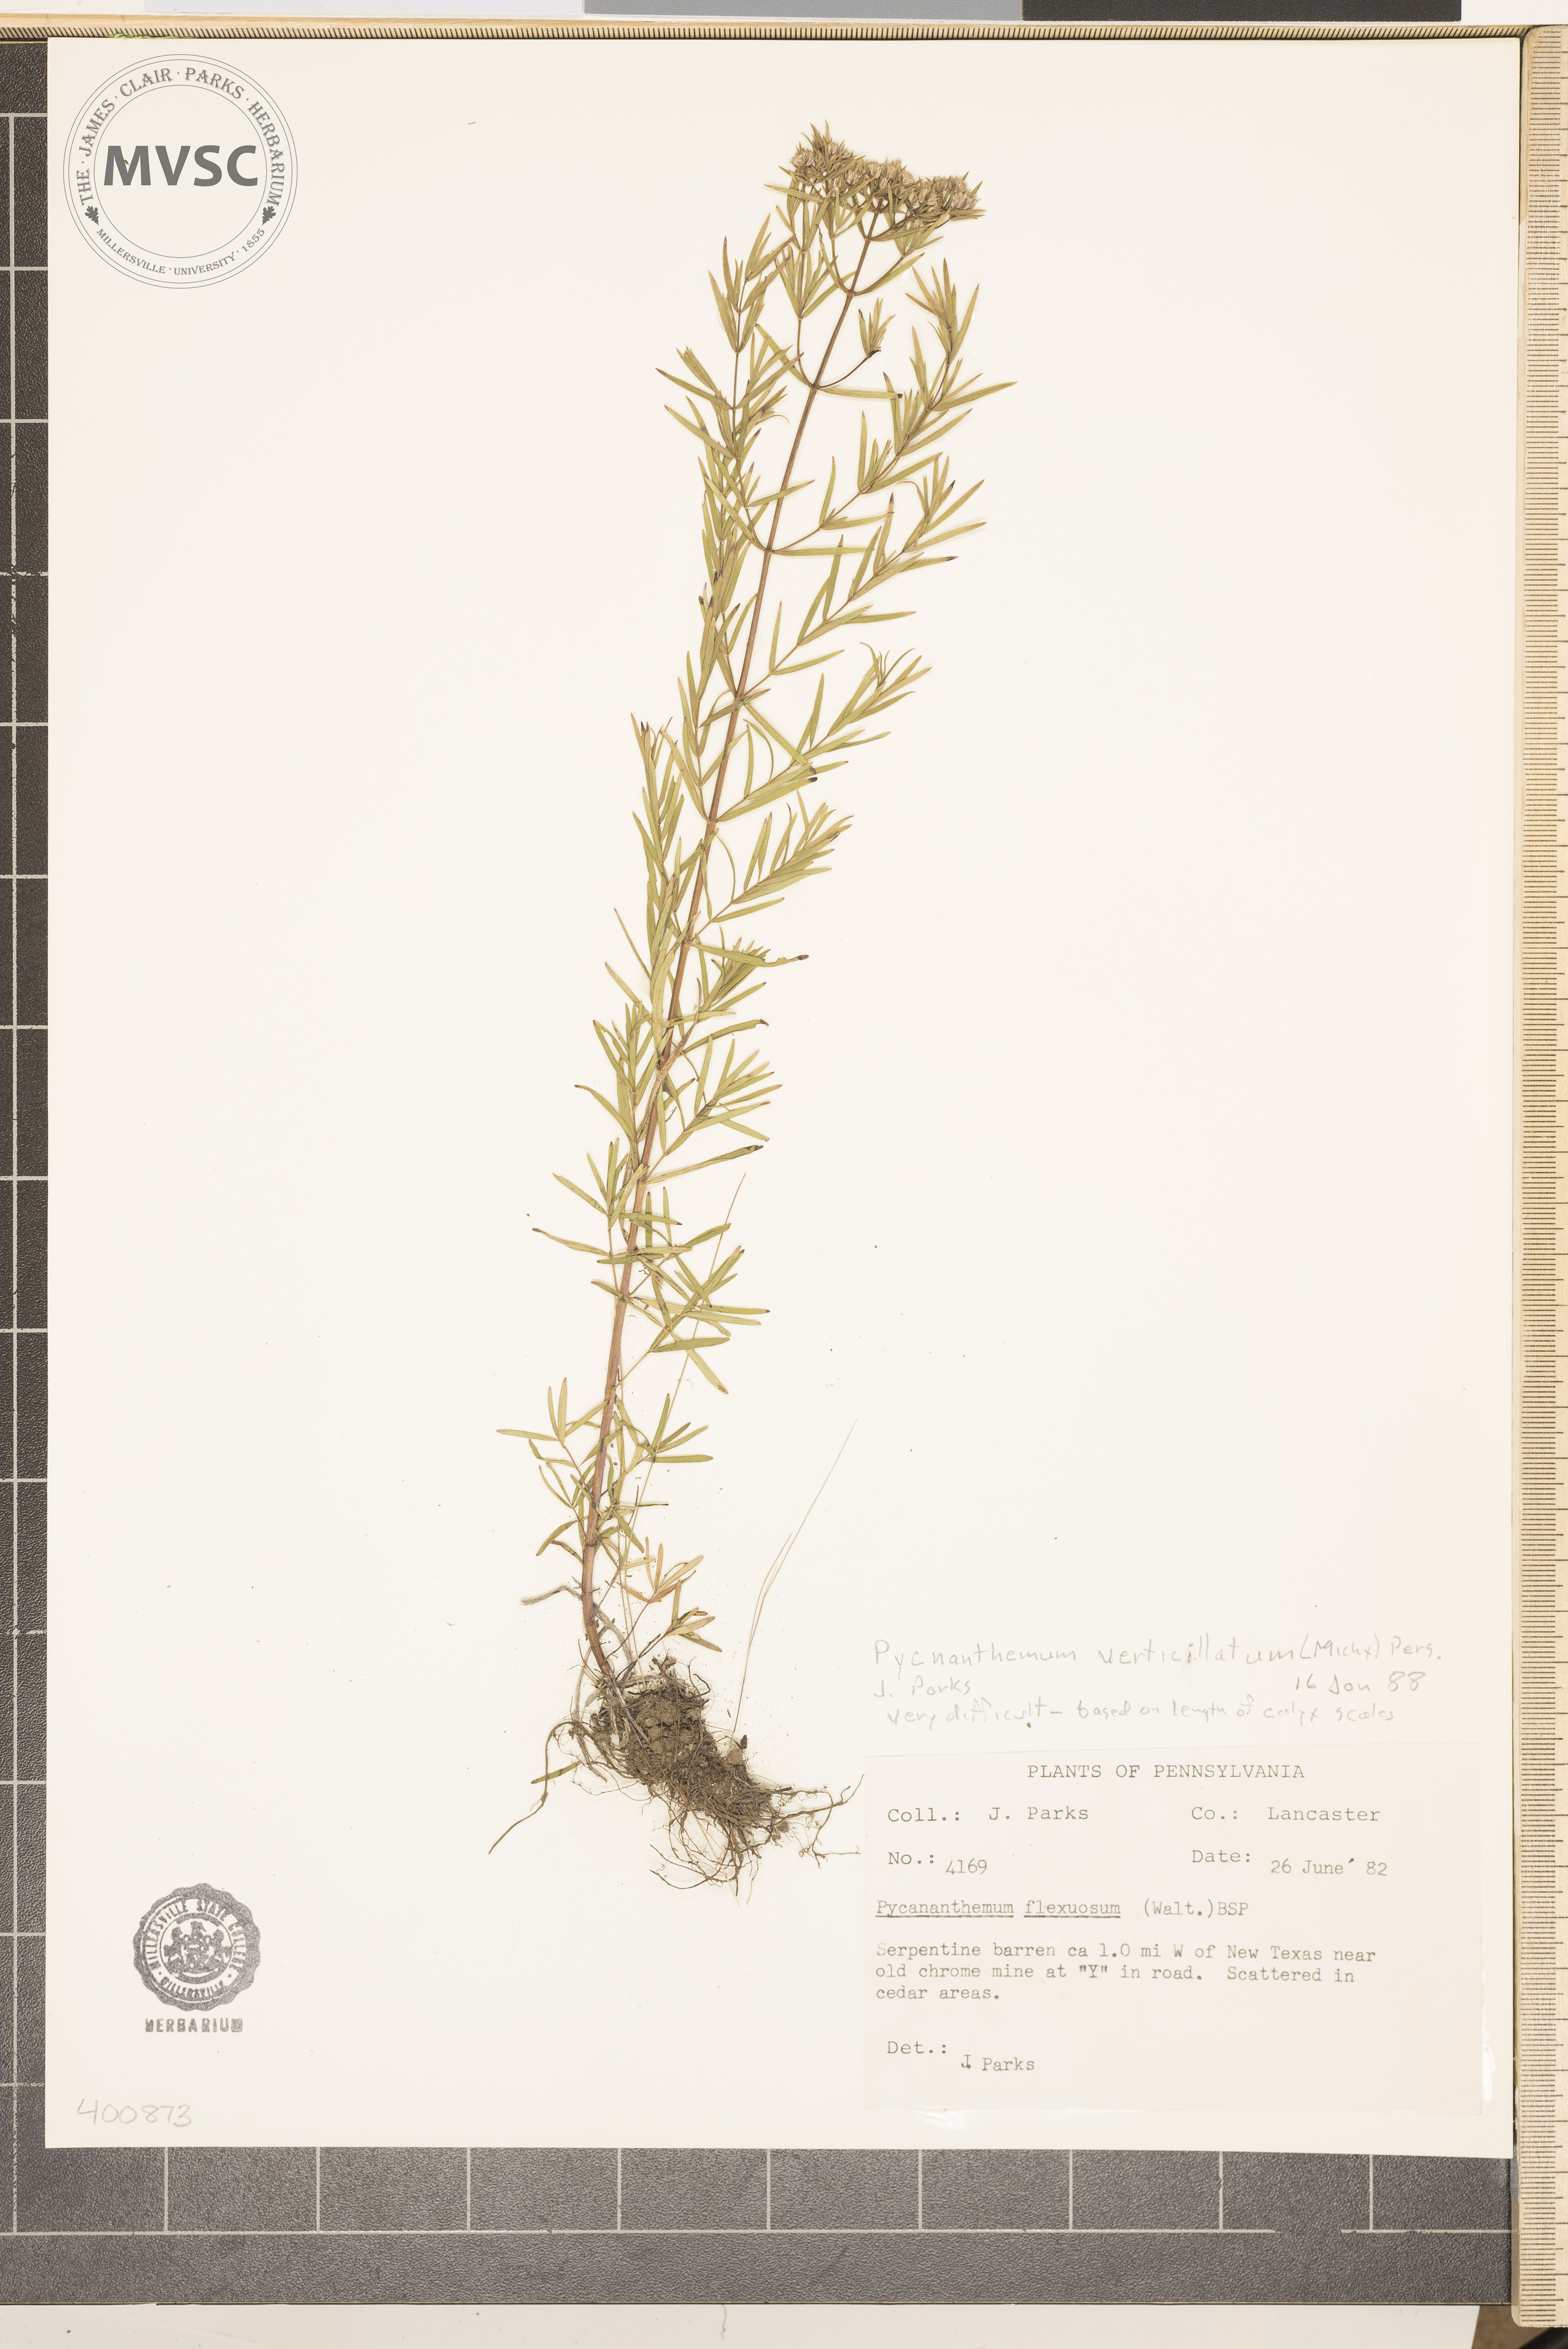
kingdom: Plantae
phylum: Tracheophyta
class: Magnoliopsida
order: Lamiales
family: Lamiaceae
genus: Pycnanthemum
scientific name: Pycnanthemum verticillatum
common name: mountain mint
